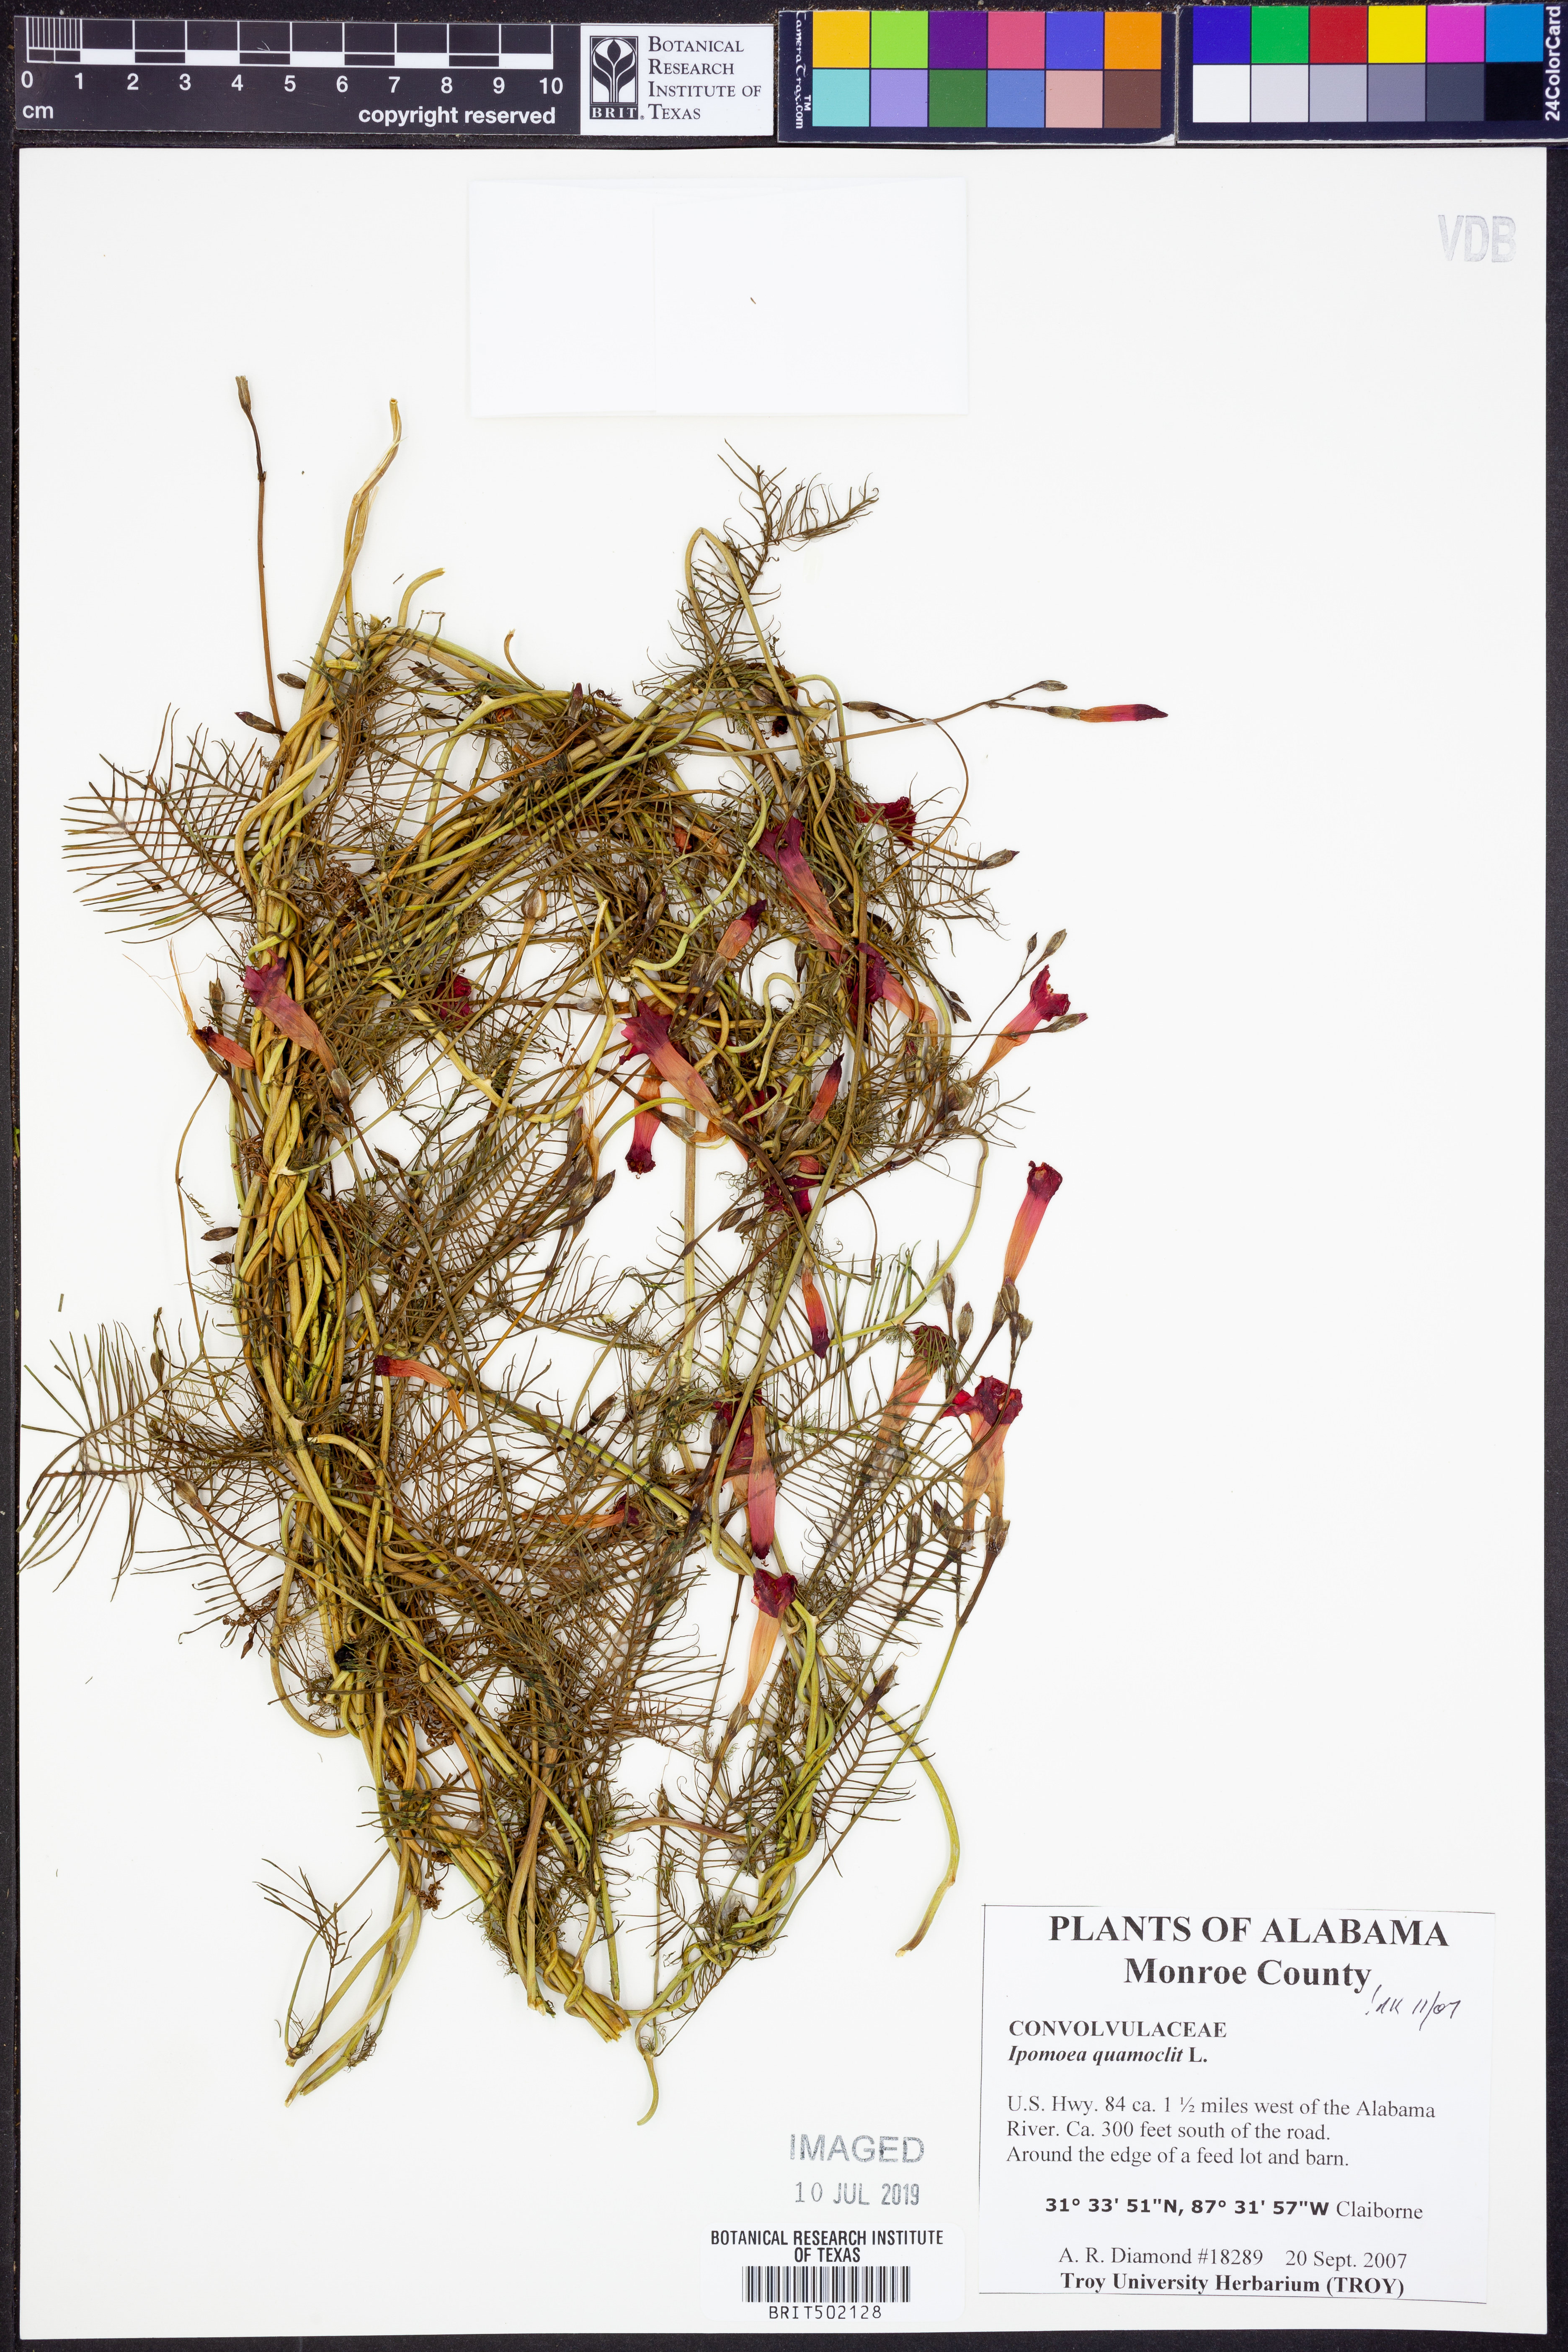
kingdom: Plantae
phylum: Tracheophyta
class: Magnoliopsida
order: Solanales
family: Convolvulaceae
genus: Ipomoea
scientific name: Ipomoea quamoclit
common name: Cypress vine
